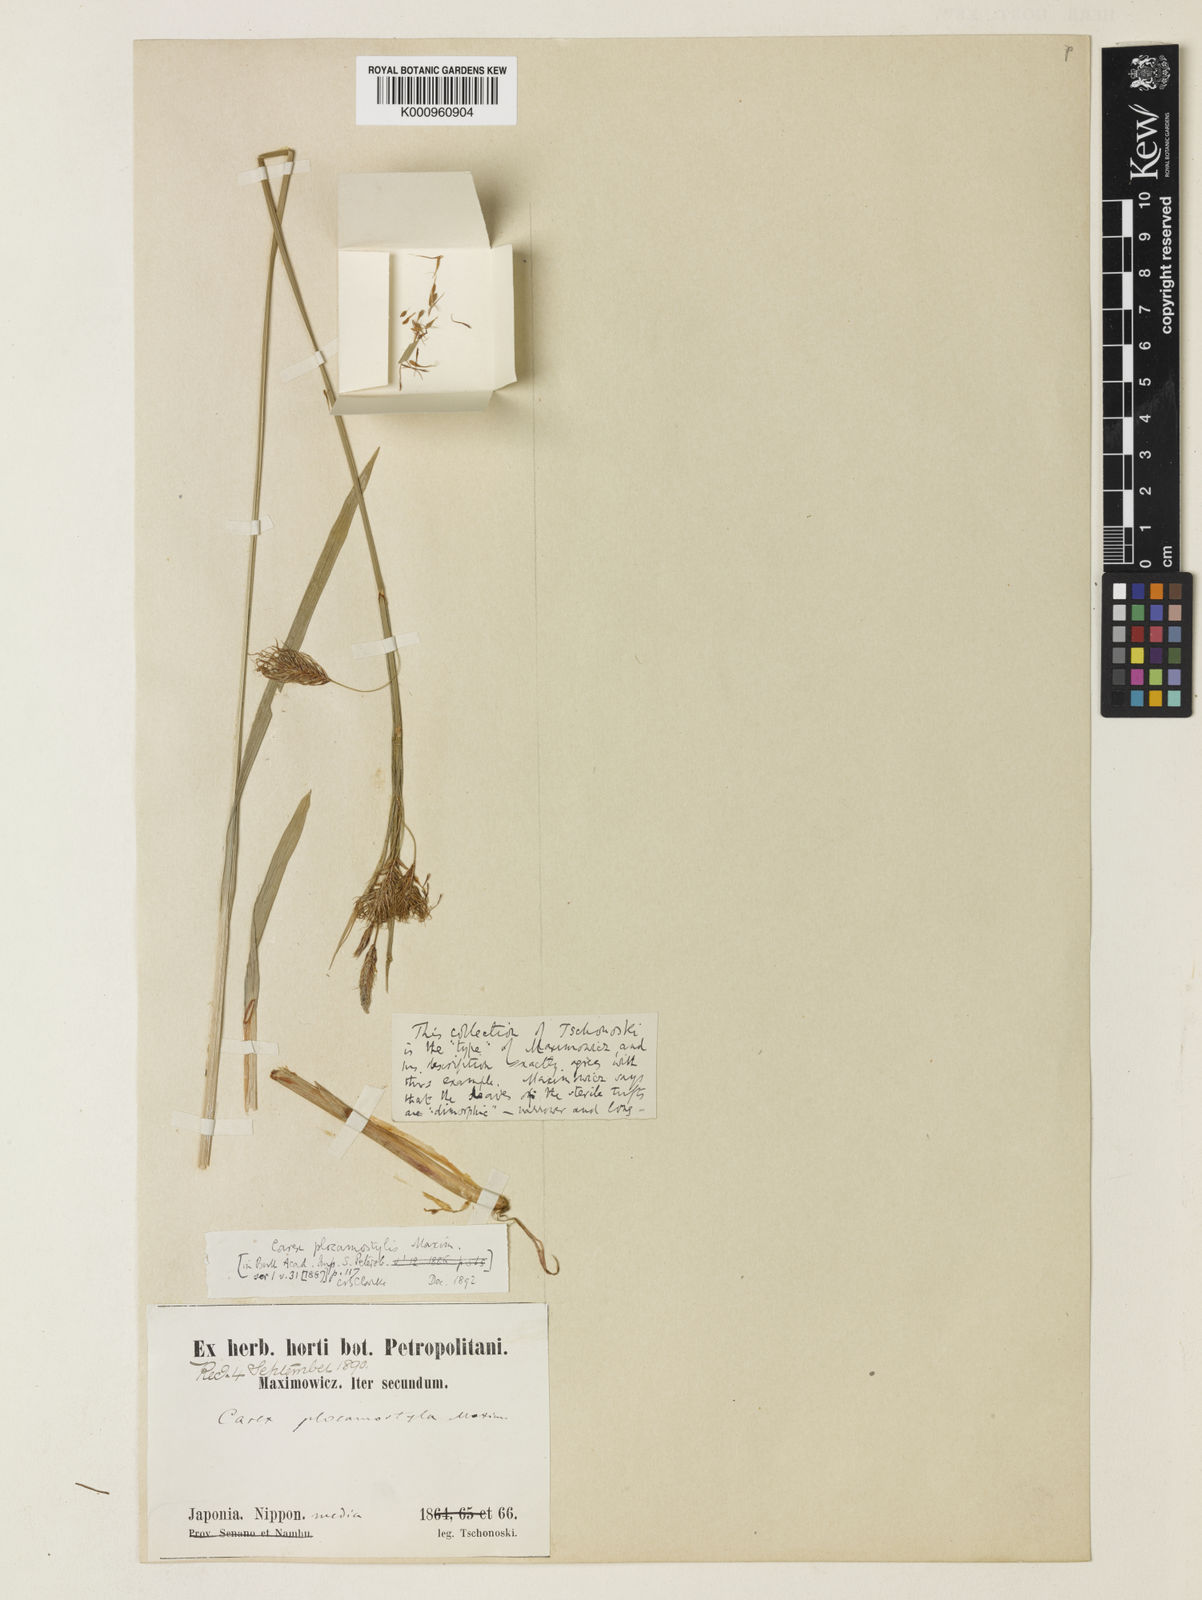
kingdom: Plantae
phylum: Tracheophyta
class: Liliopsida
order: Poales
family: Cyperaceae
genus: Carex
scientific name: Carex doenitzii
